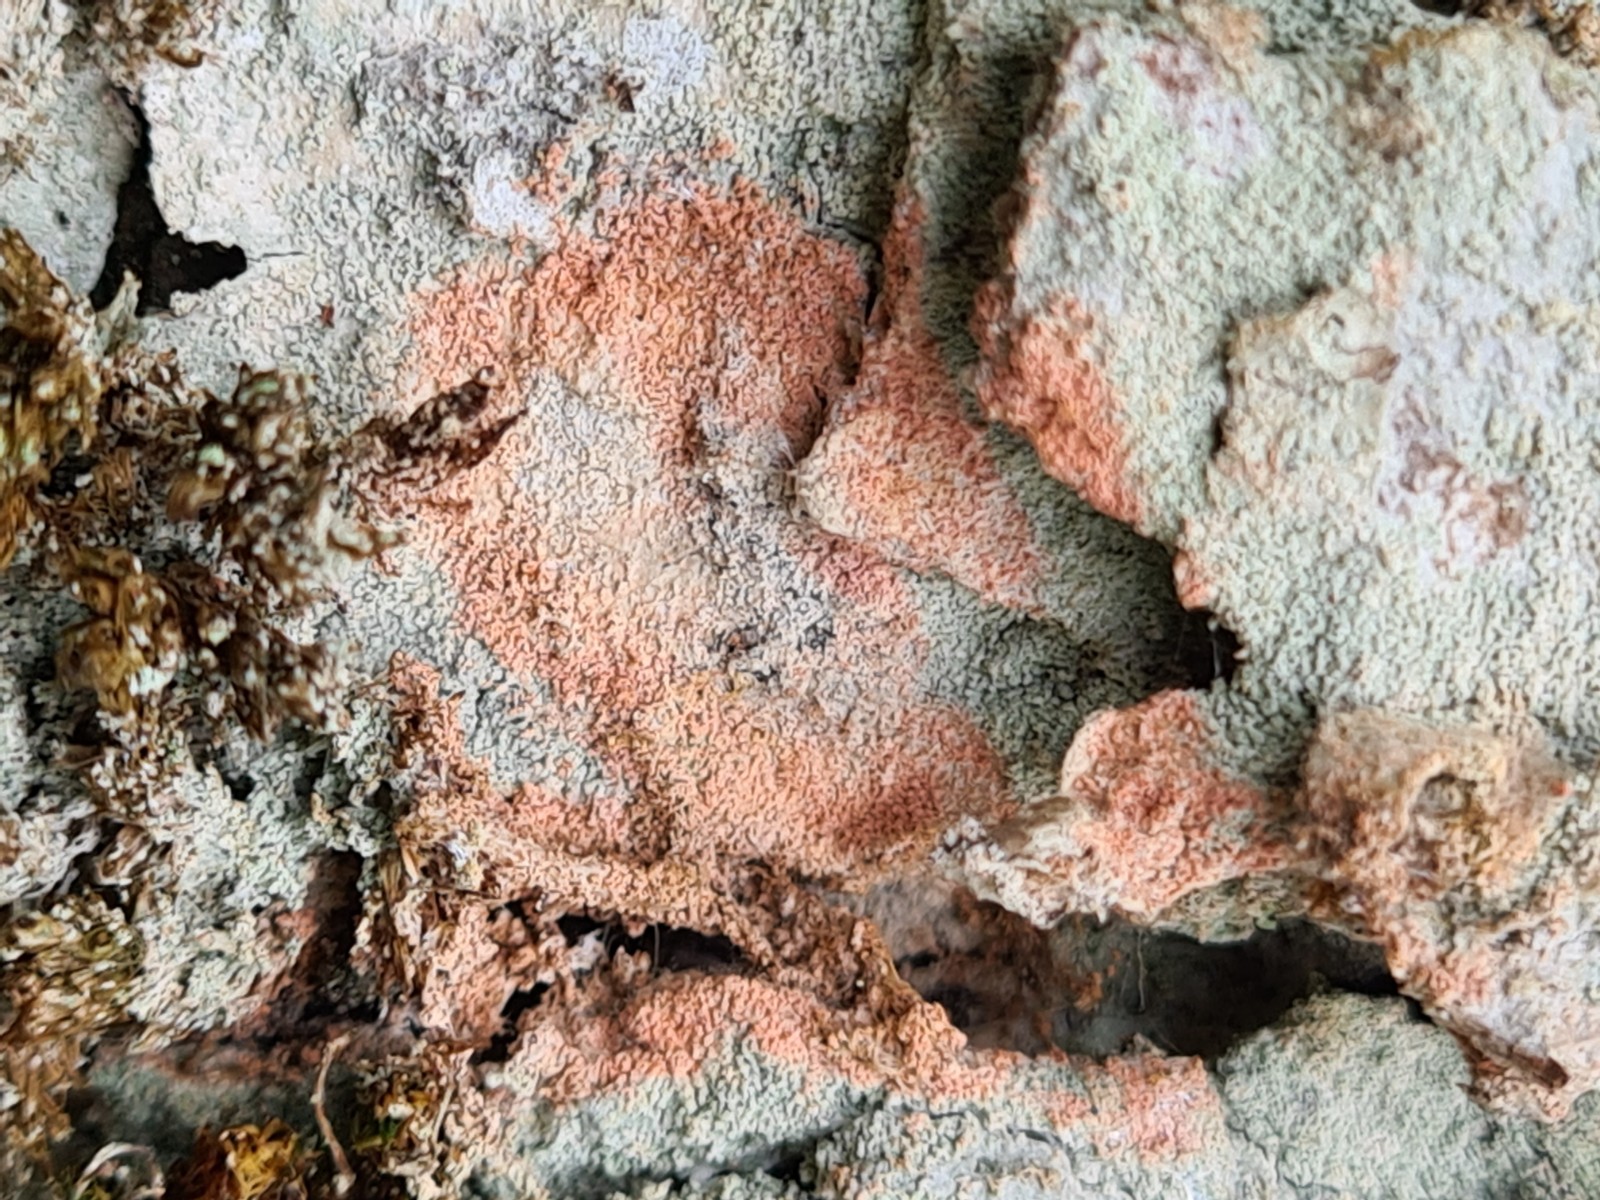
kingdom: Fungi
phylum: Ascomycota
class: Lecanoromycetes
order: Ostropales
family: Phlyctidaceae
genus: Phlyctis
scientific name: Phlyctis argena
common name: almindelig sølvlav
